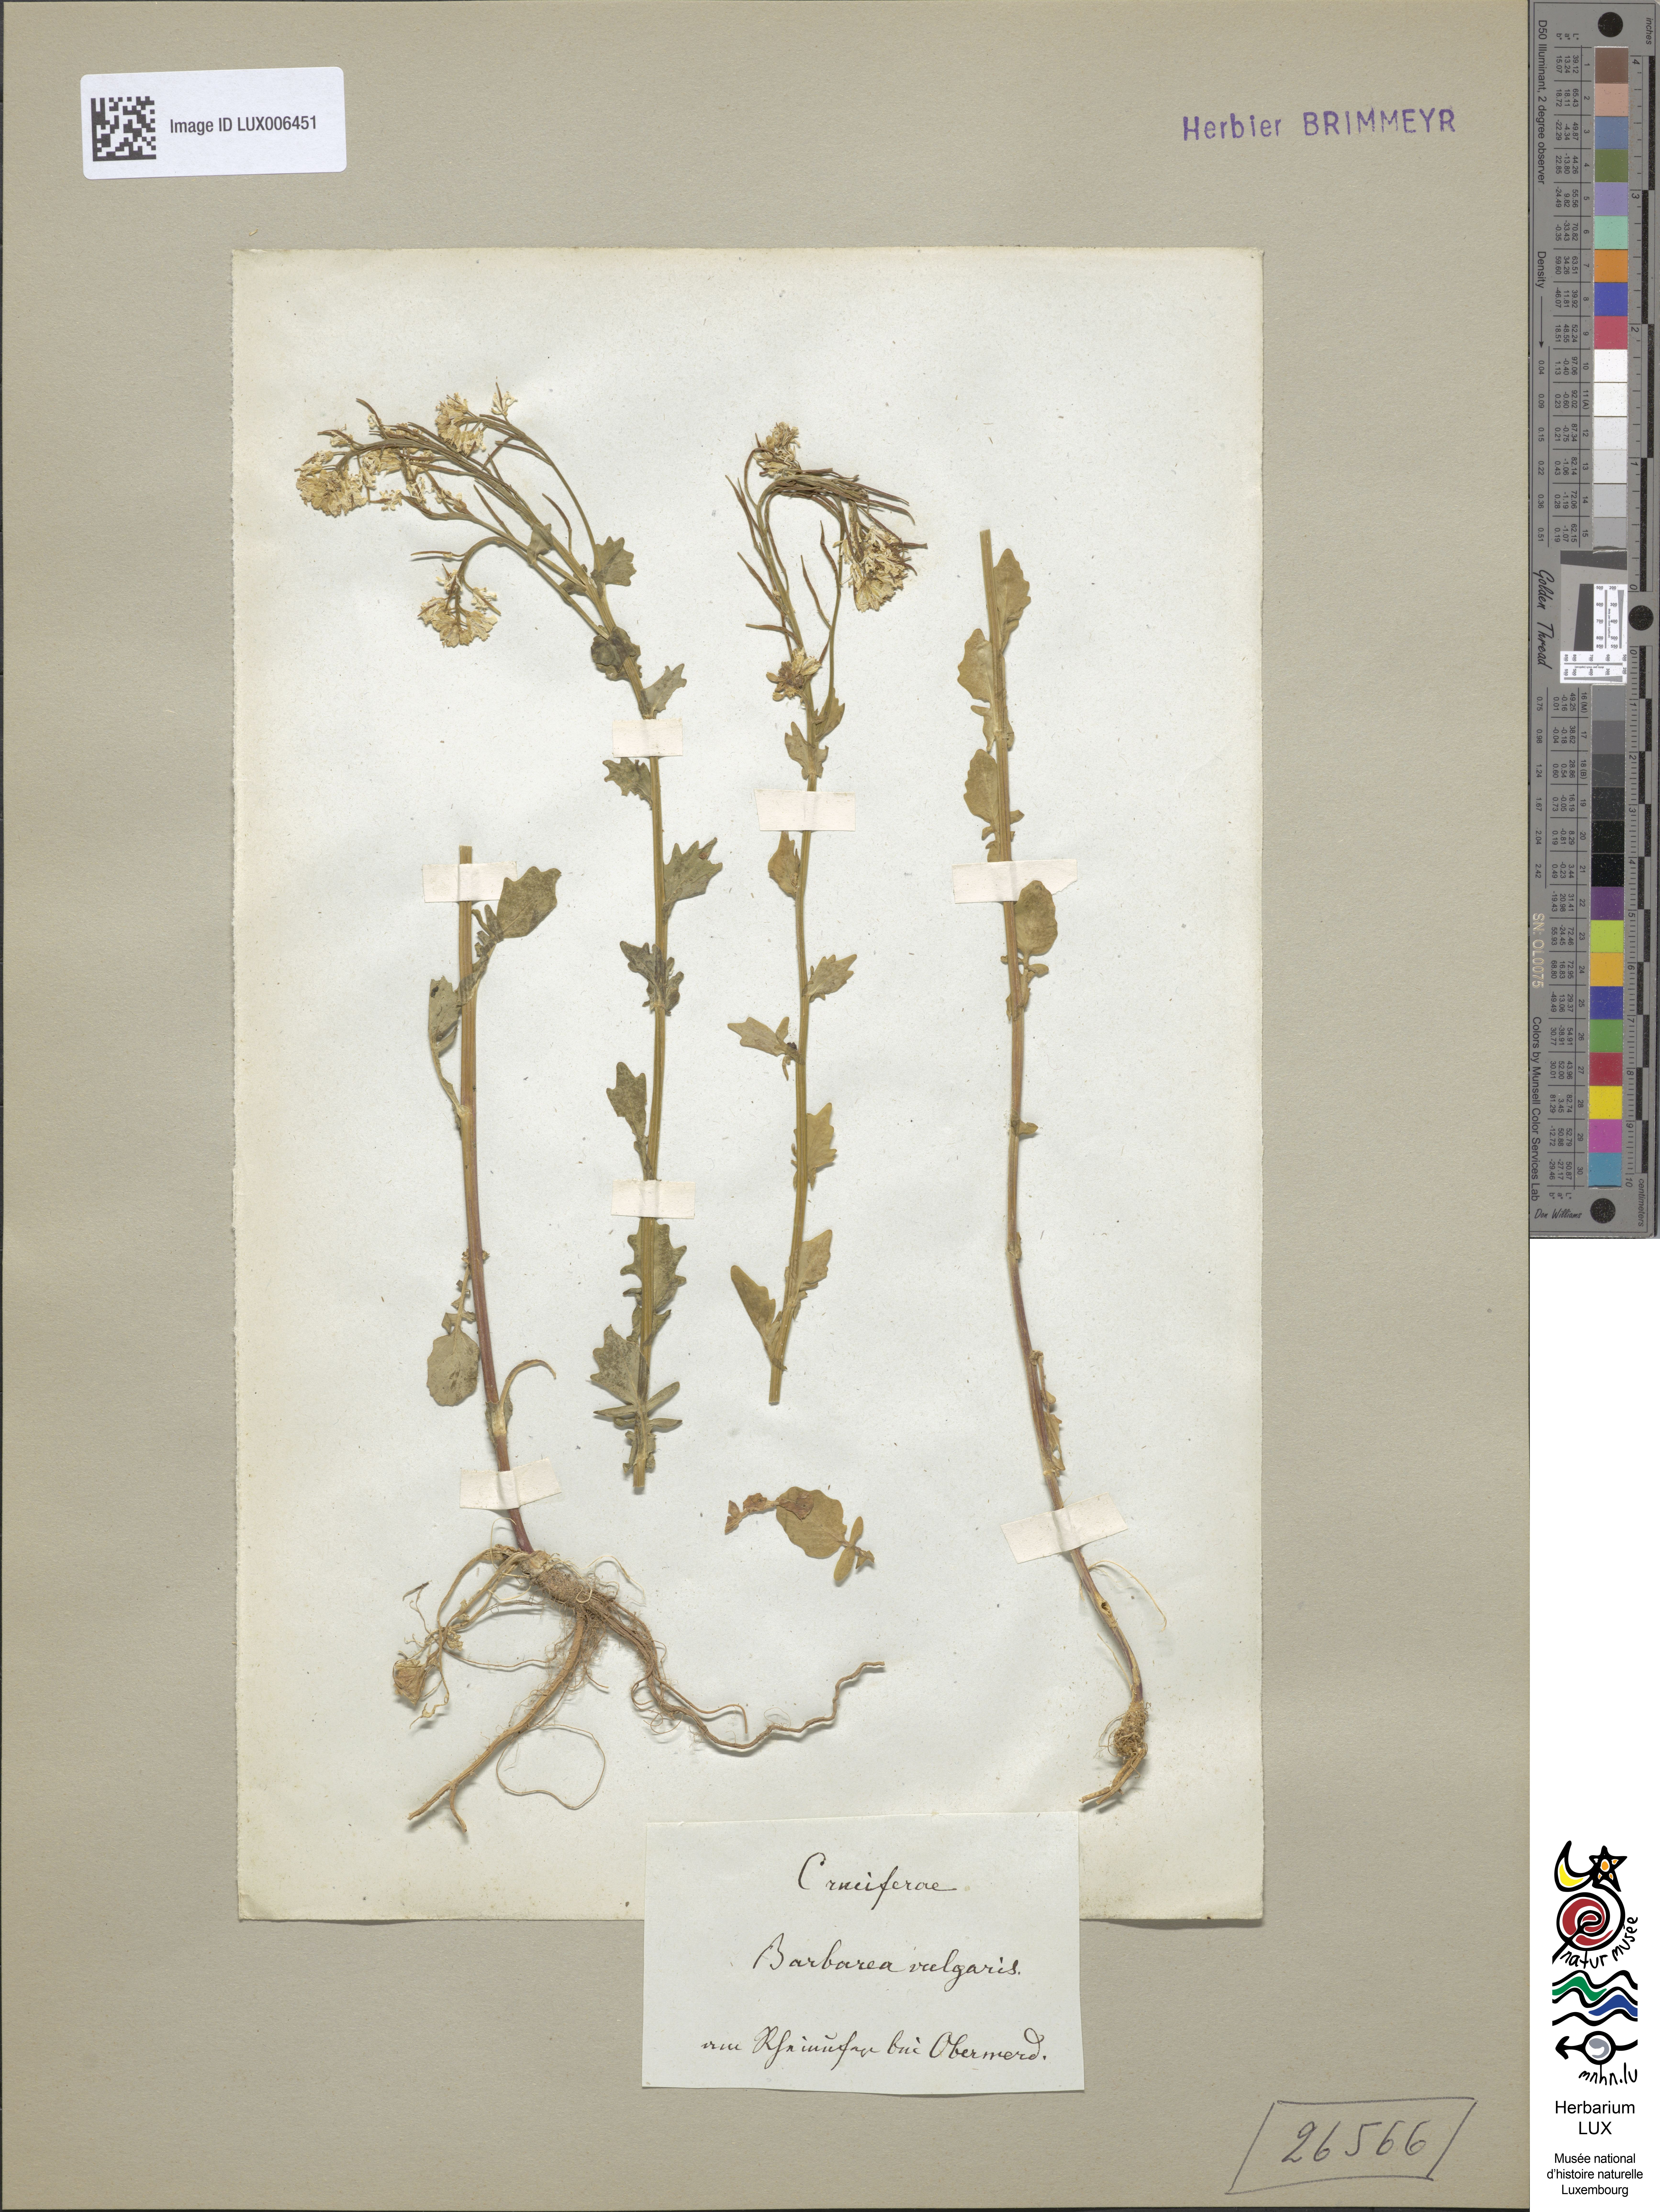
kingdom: Plantae
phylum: Tracheophyta
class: Magnoliopsida
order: Brassicales
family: Brassicaceae
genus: Barbarea
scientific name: Barbarea vulgaris
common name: Cressy-greens
